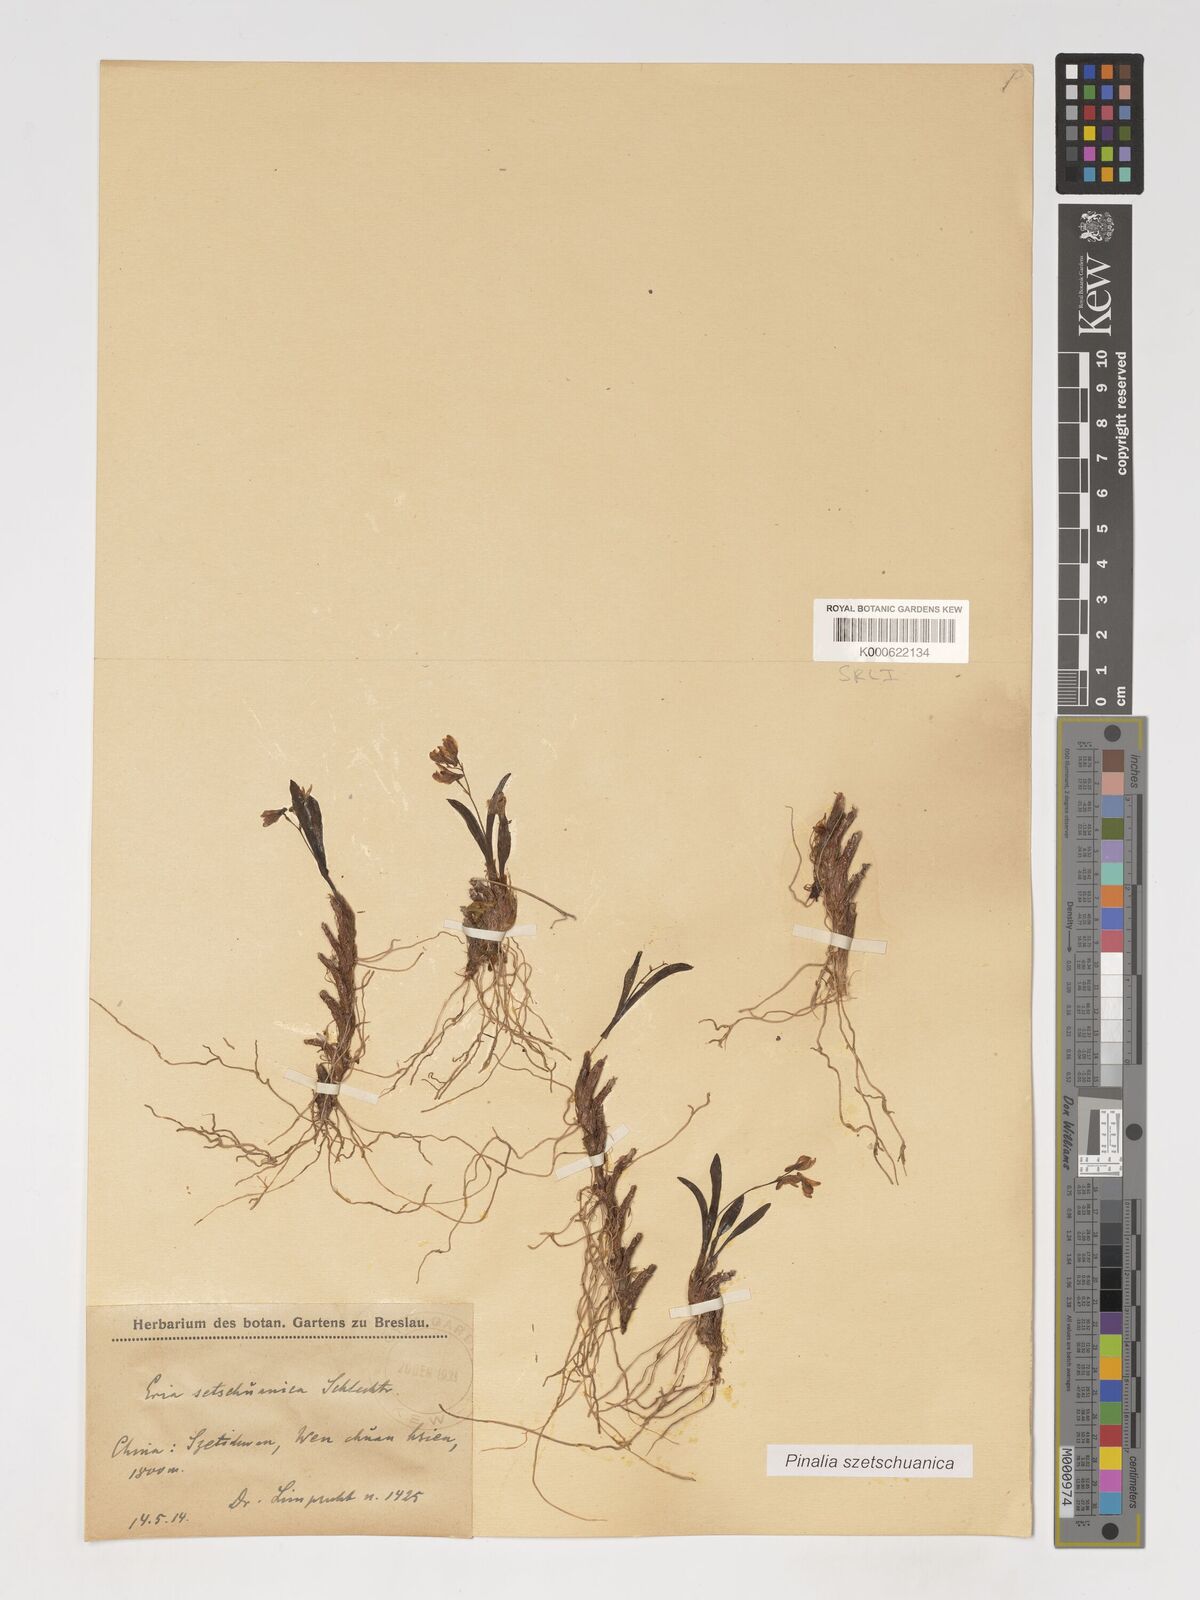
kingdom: Plantae
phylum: Tracheophyta
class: Liliopsida
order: Asparagales
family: Orchidaceae
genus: Pinalia
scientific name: Pinalia szetschuanica
